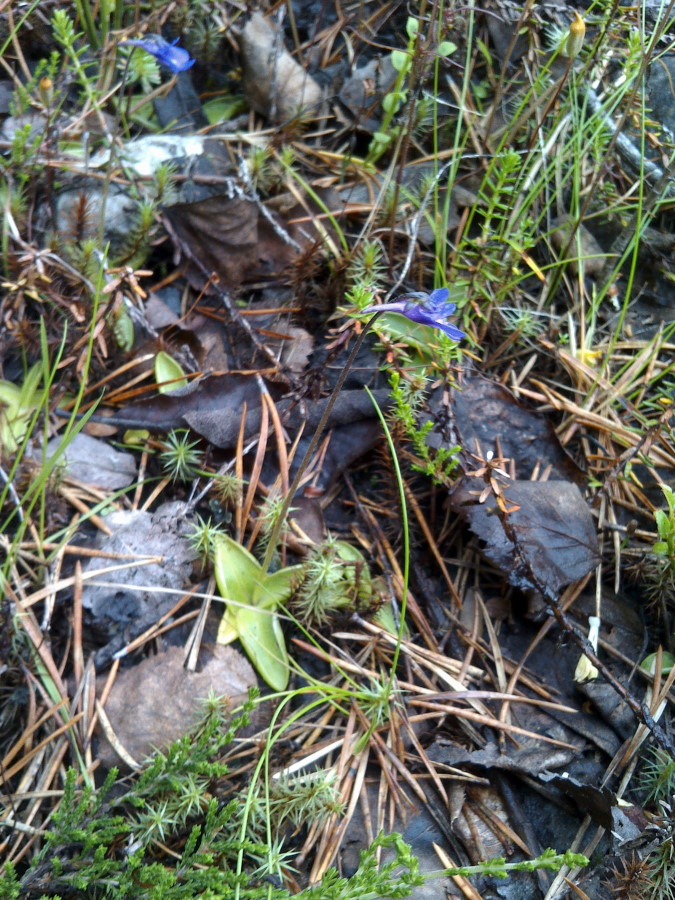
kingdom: Plantae
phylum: Tracheophyta
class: Magnoliopsida
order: Lamiales
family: Lentibulariaceae
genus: Pinguicula
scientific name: Pinguicula vulgaris
